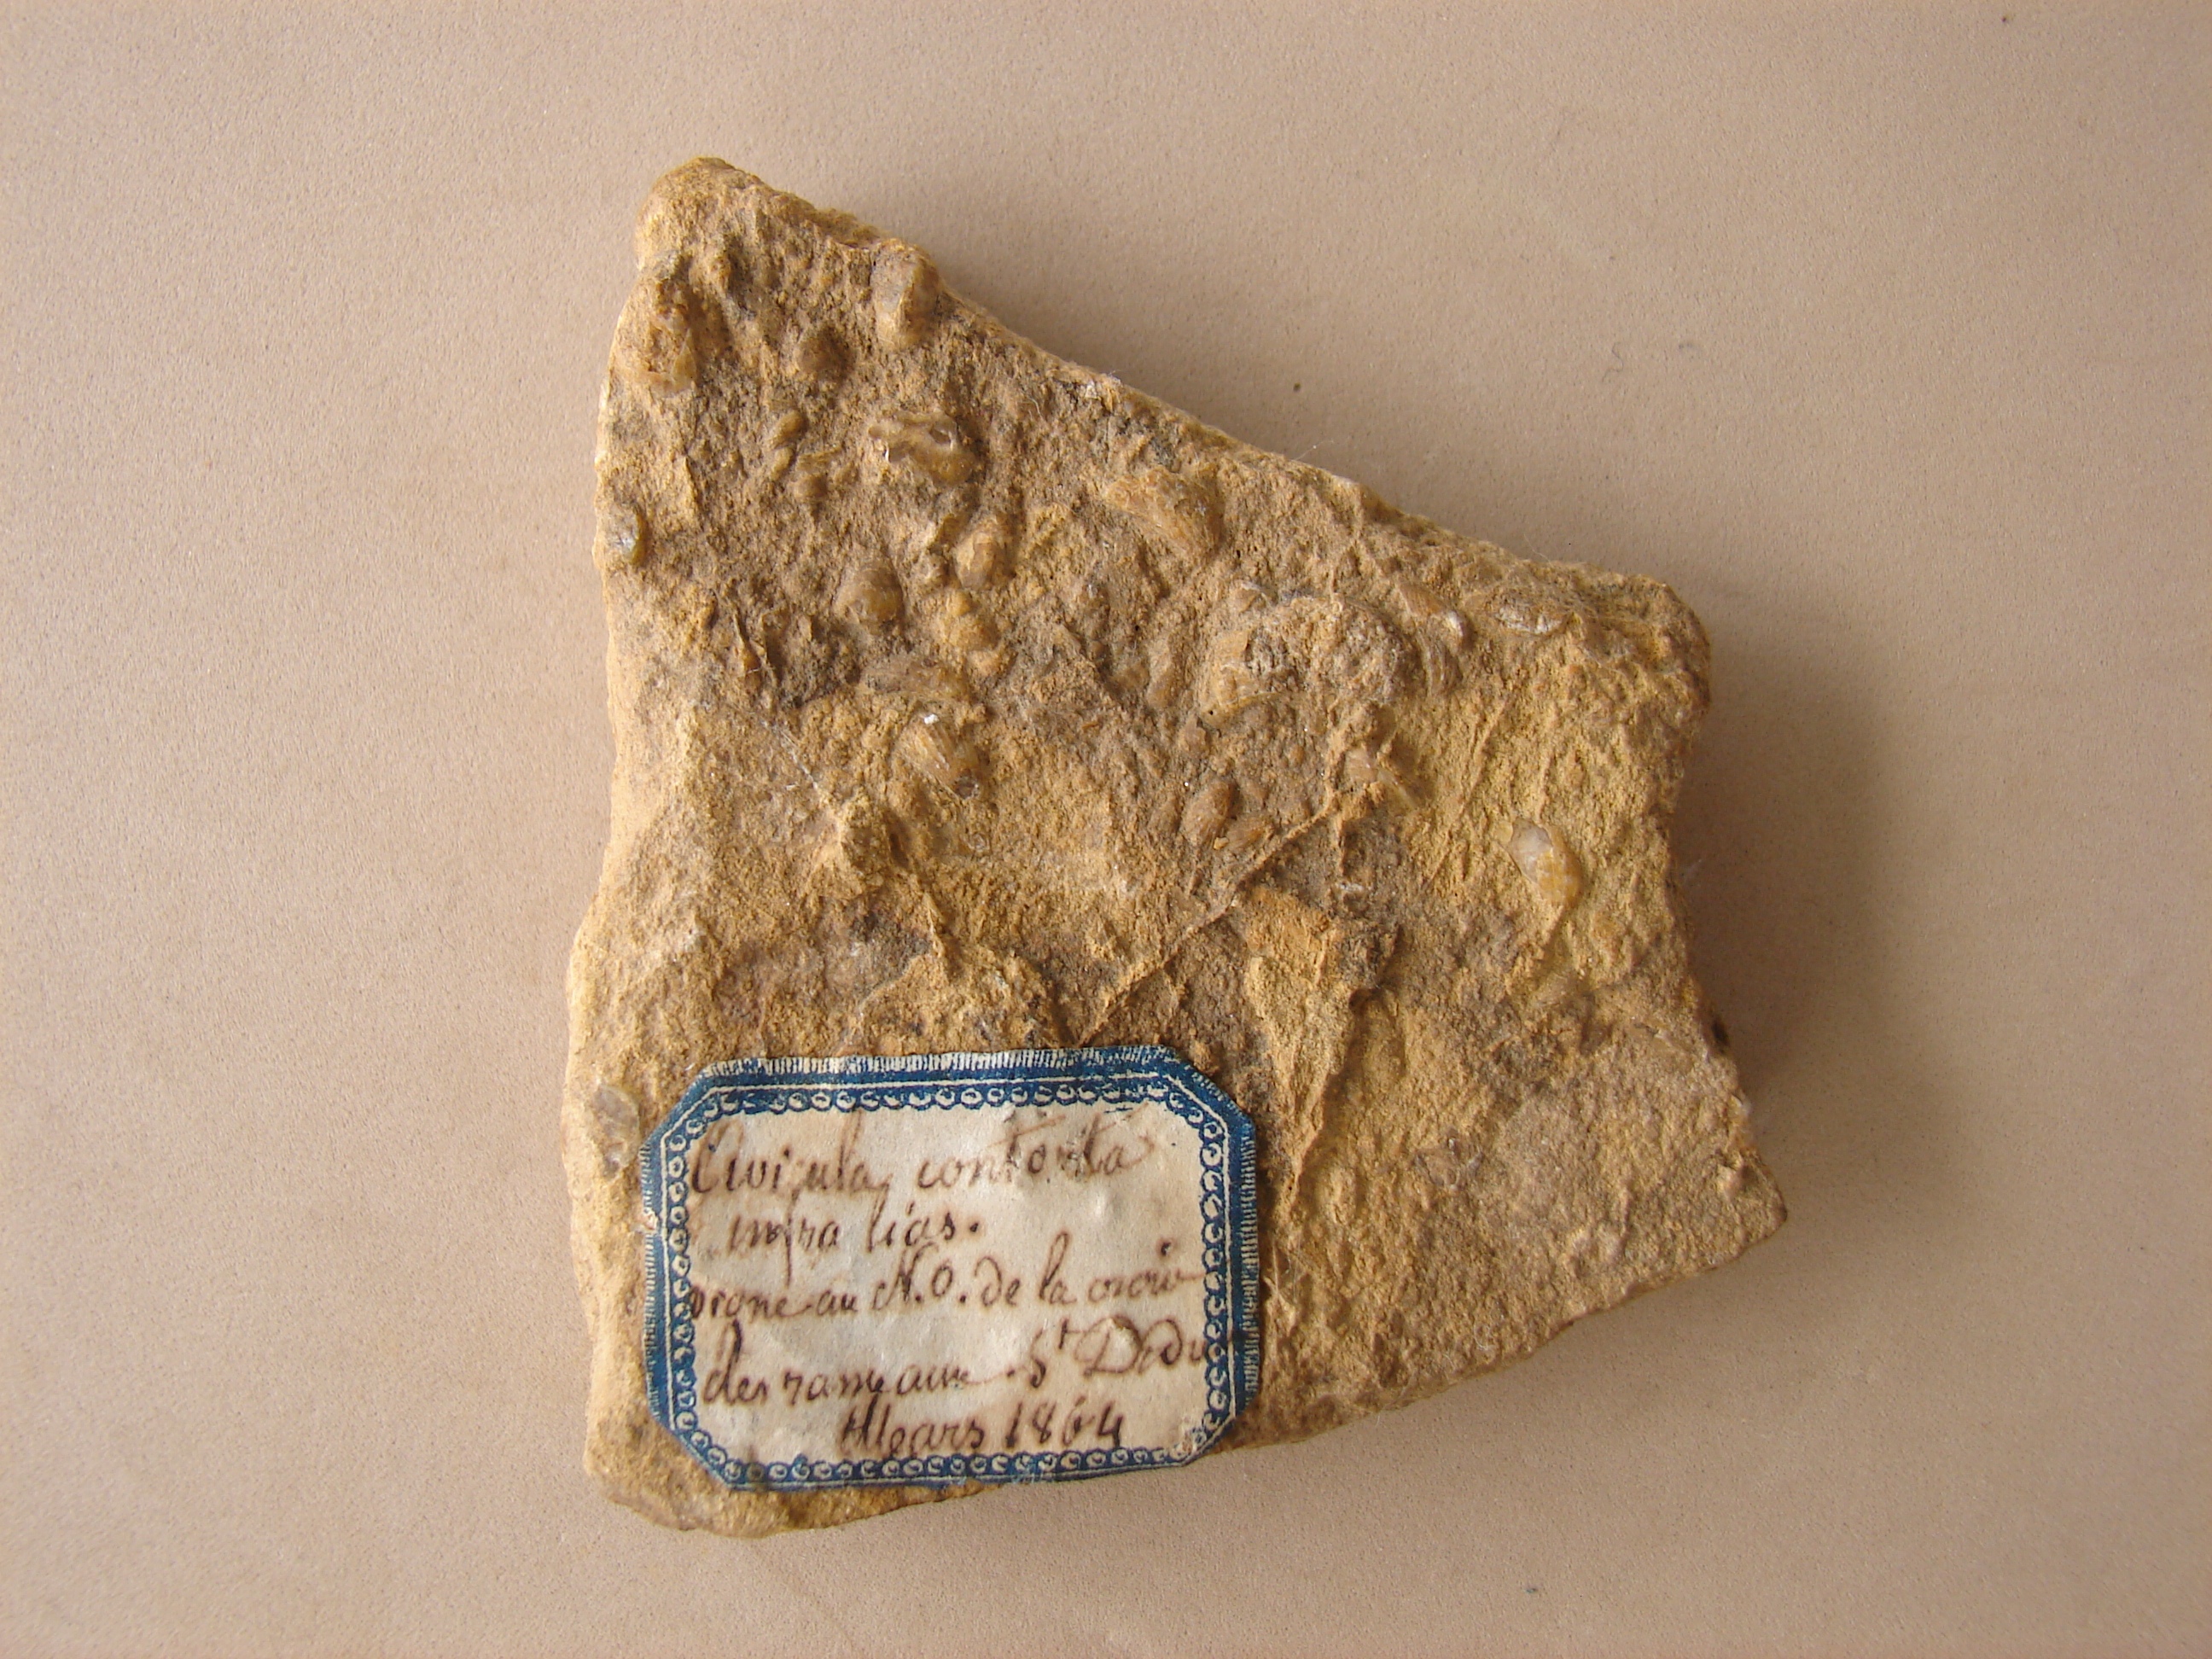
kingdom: Animalia
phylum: Mollusca
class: Bivalvia
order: Ostreida
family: Pteriidae
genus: Rhaetavicula
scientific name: Rhaetavicula contorta
